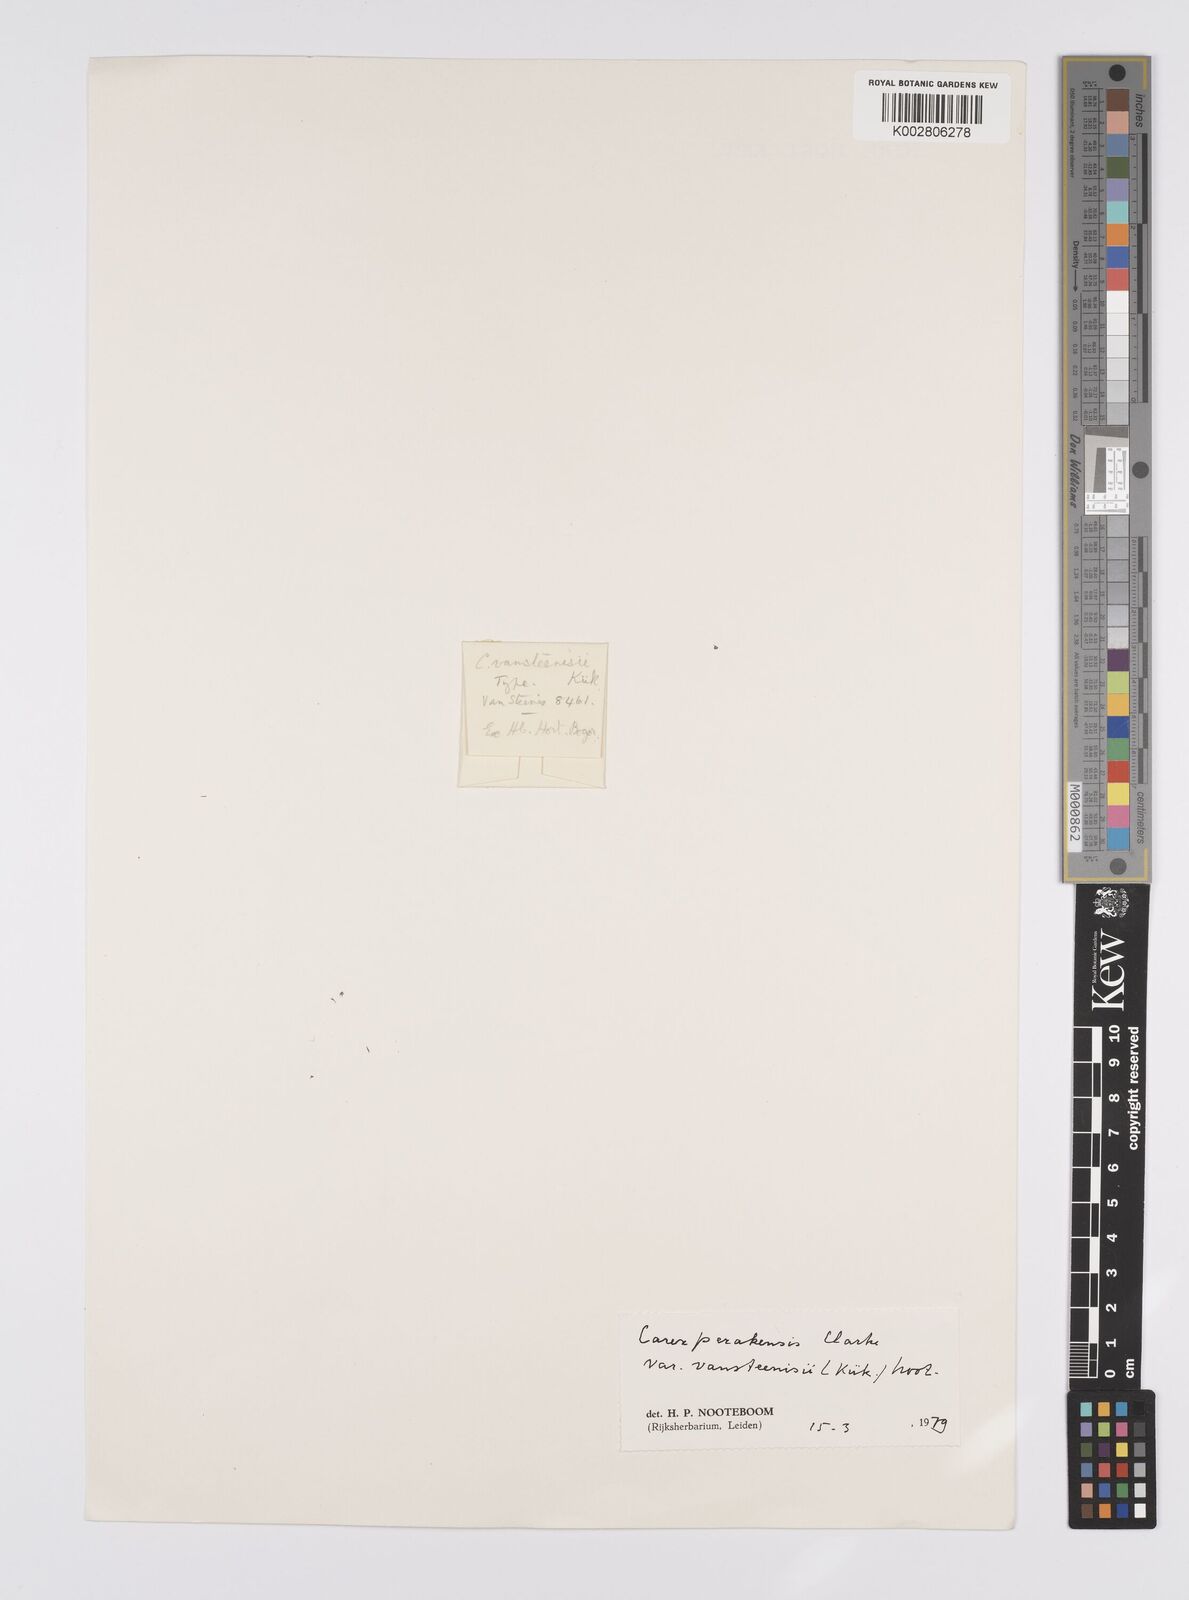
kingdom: Plantae
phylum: Tracheophyta
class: Liliopsida
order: Poales
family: Cyperaceae
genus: Carex
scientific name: Carex perakensis
